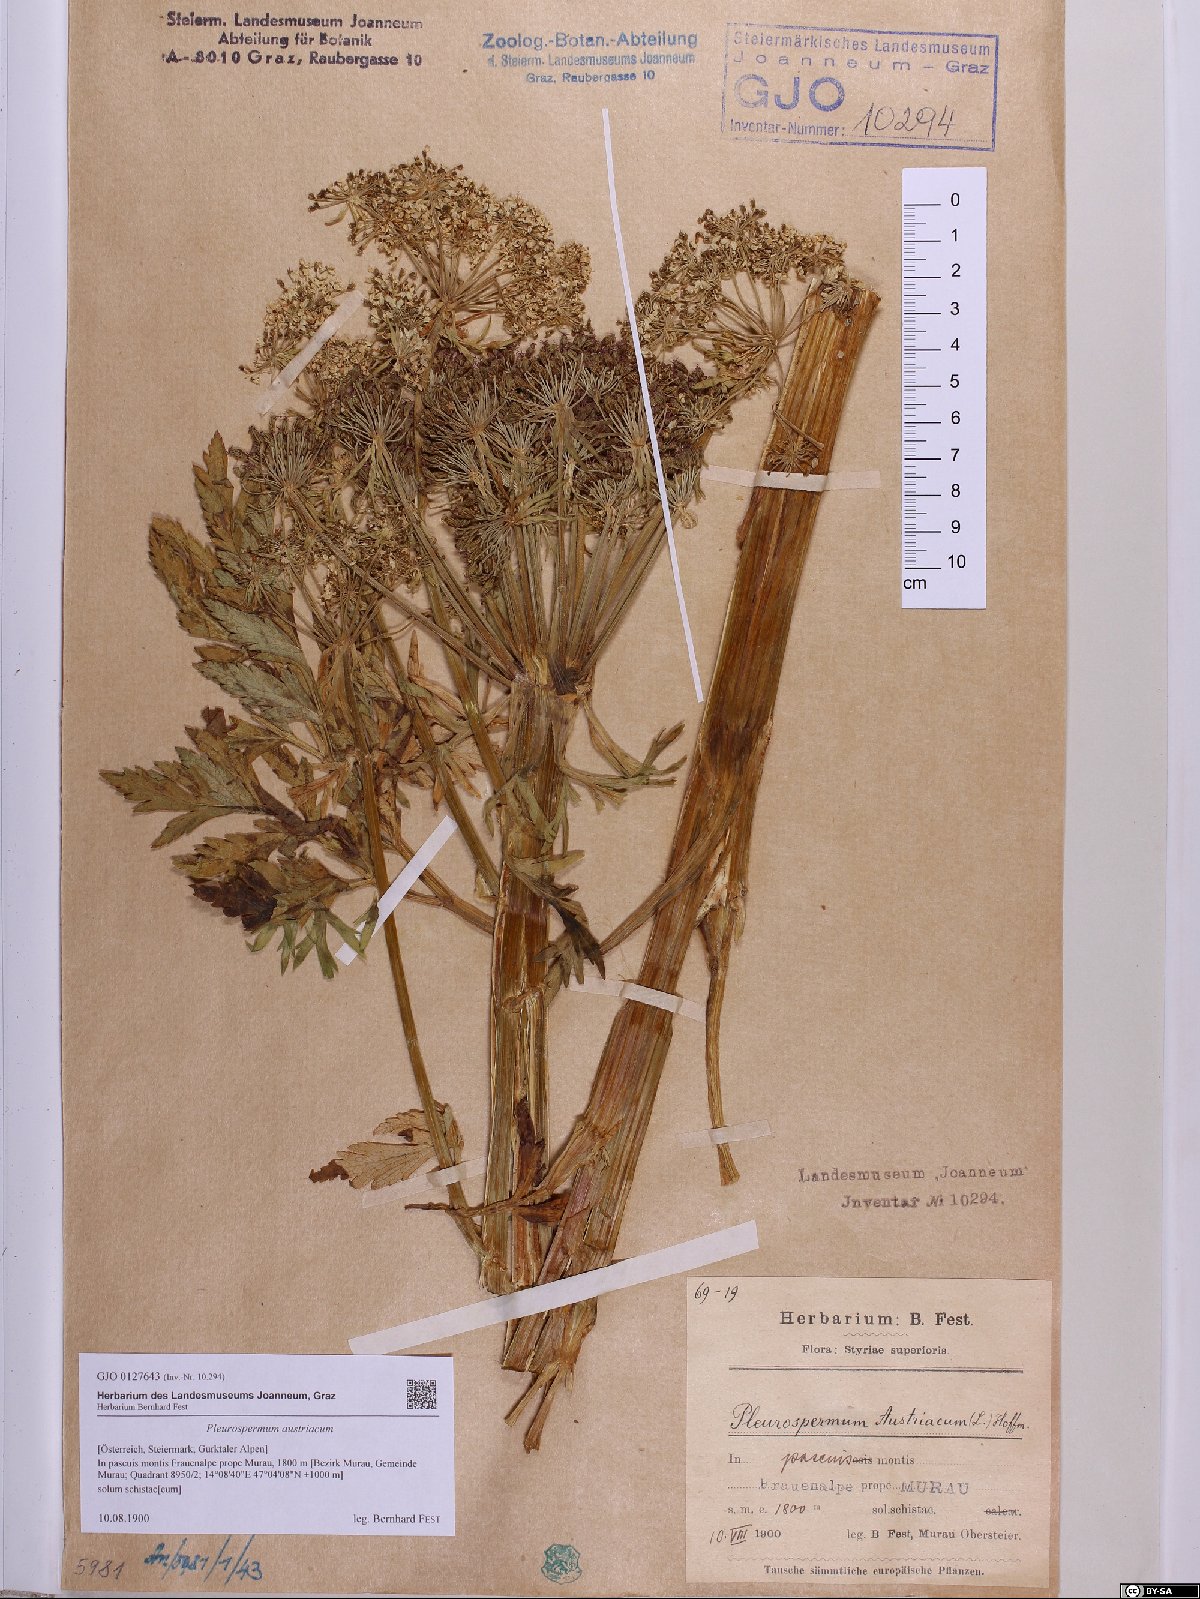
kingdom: Plantae
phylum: Tracheophyta
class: Magnoliopsida
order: Apiales
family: Apiaceae
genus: Pleurospermum
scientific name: Pleurospermum austriacum
